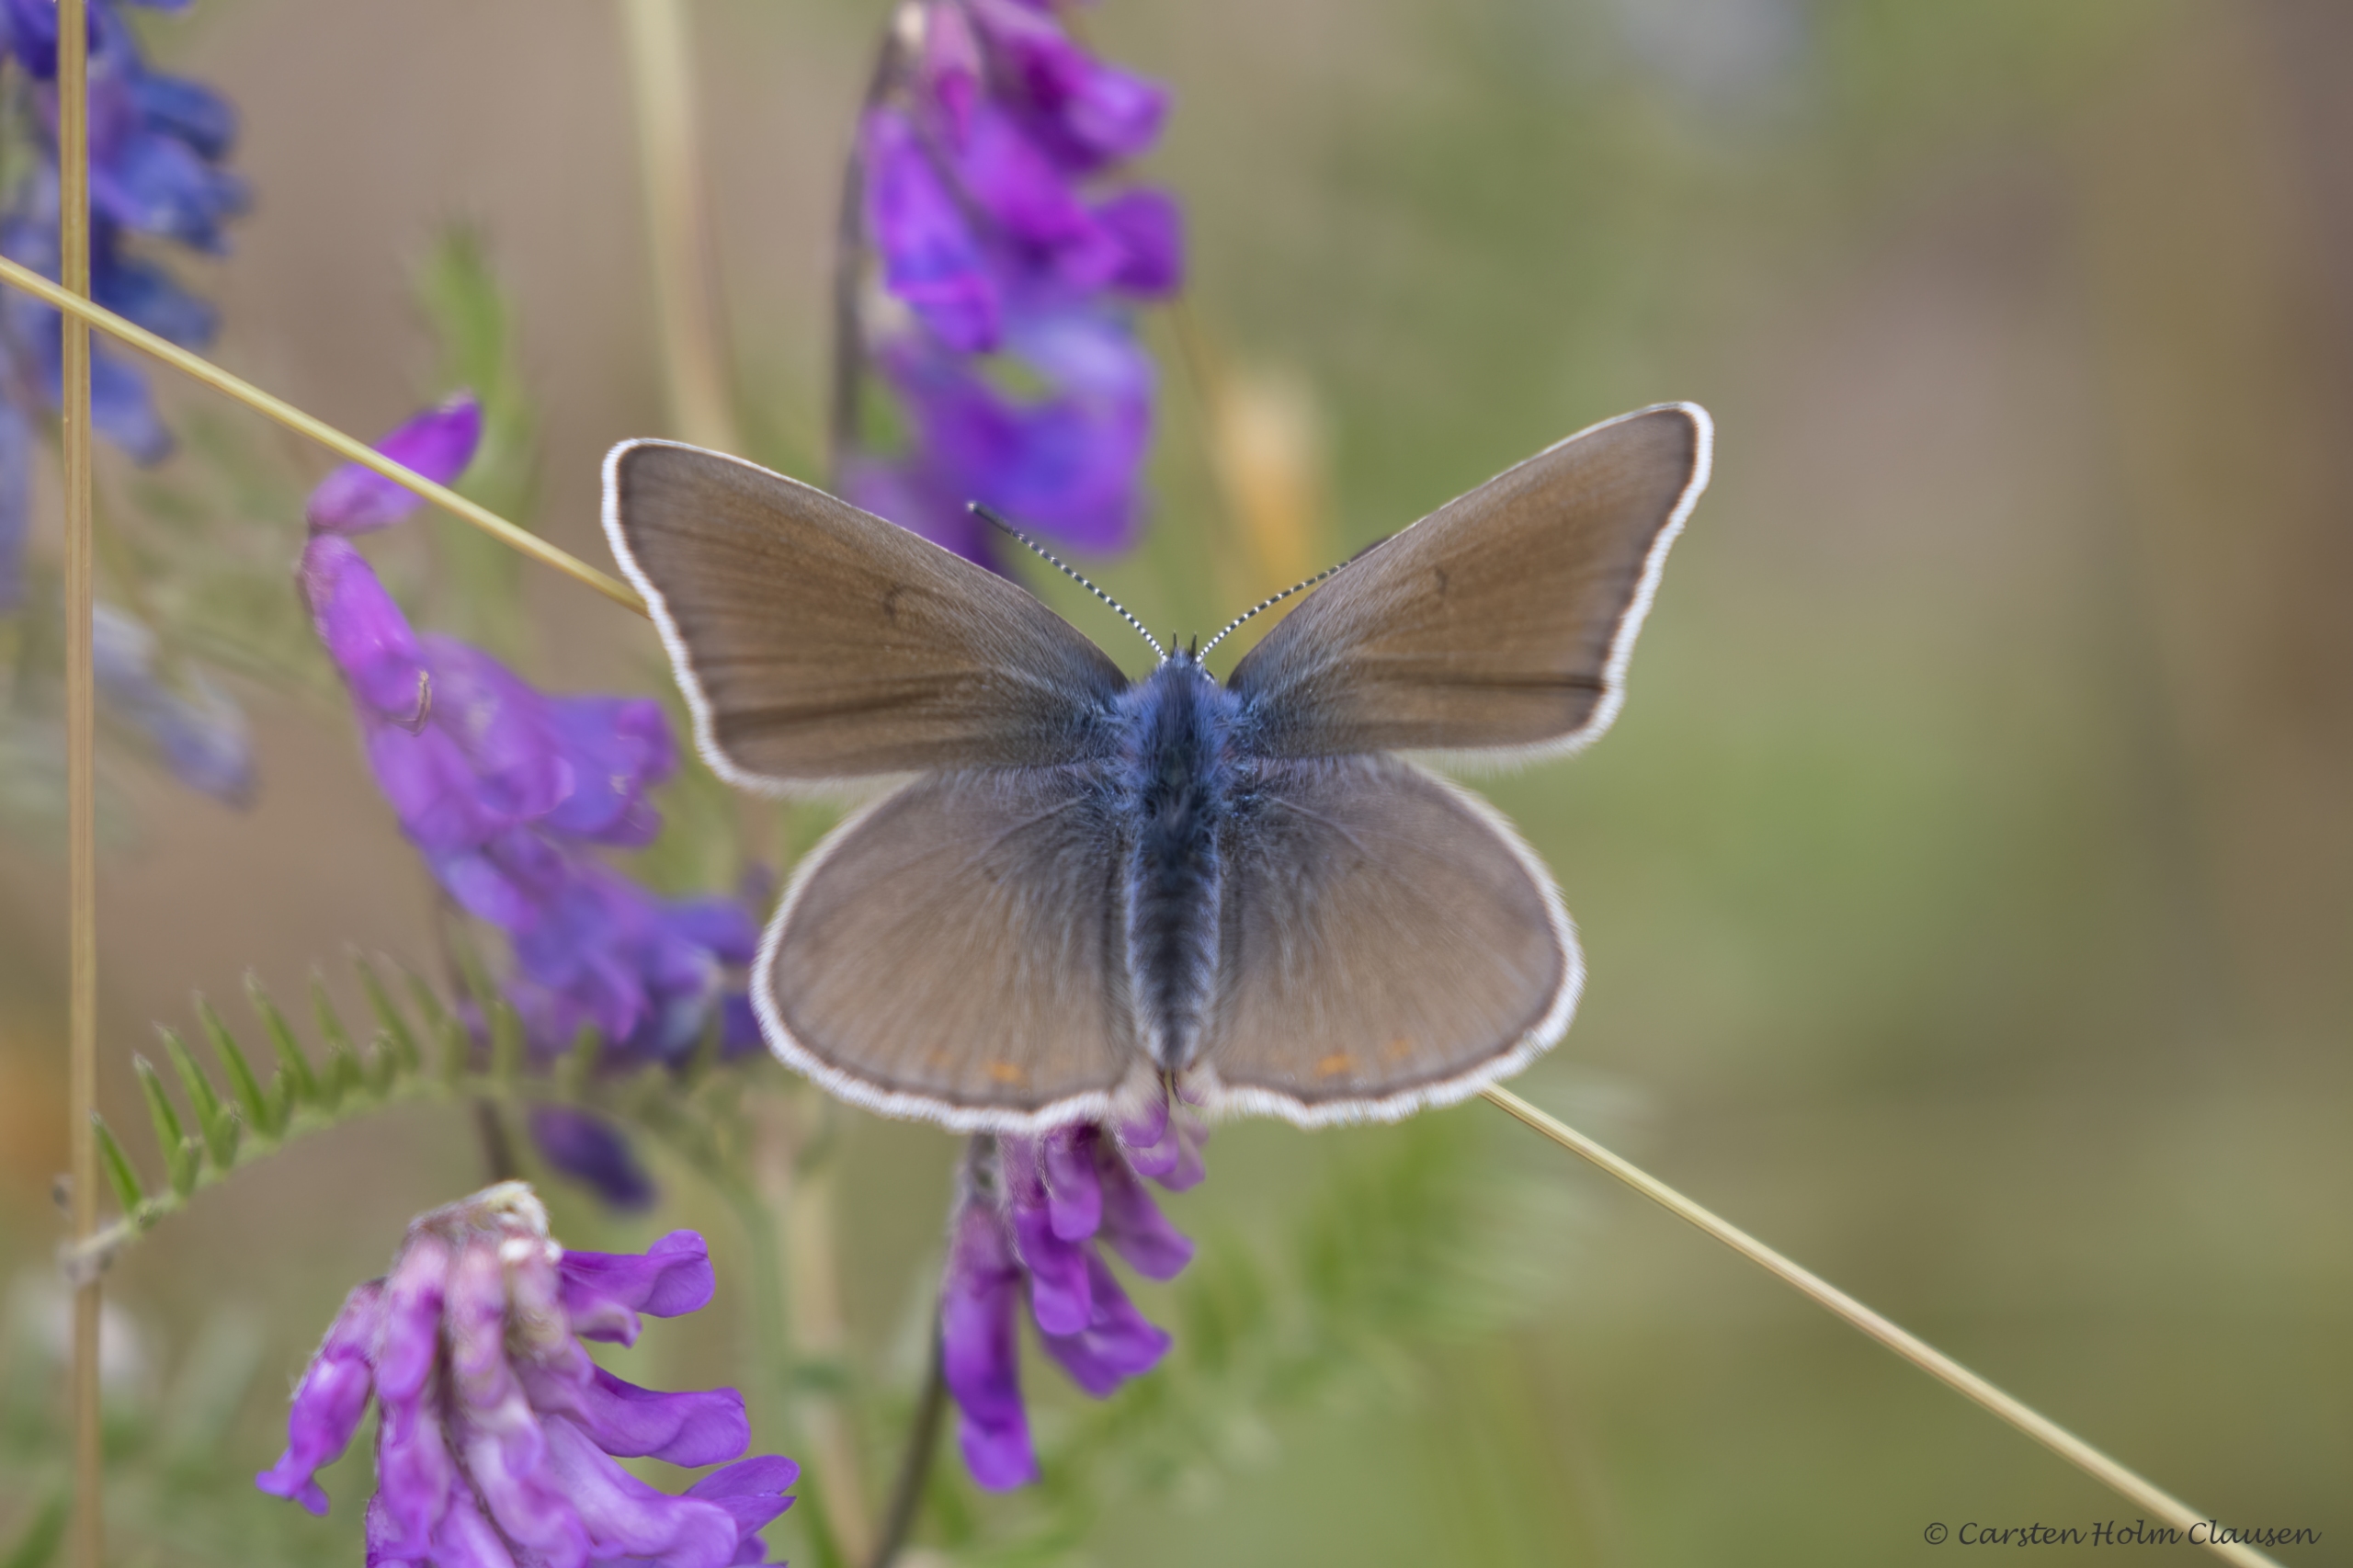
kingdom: Animalia
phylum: Arthropoda
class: Insecta
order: Lepidoptera
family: Lycaenidae
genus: Plebejus
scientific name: Plebejus amanda
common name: Isblåfugl
